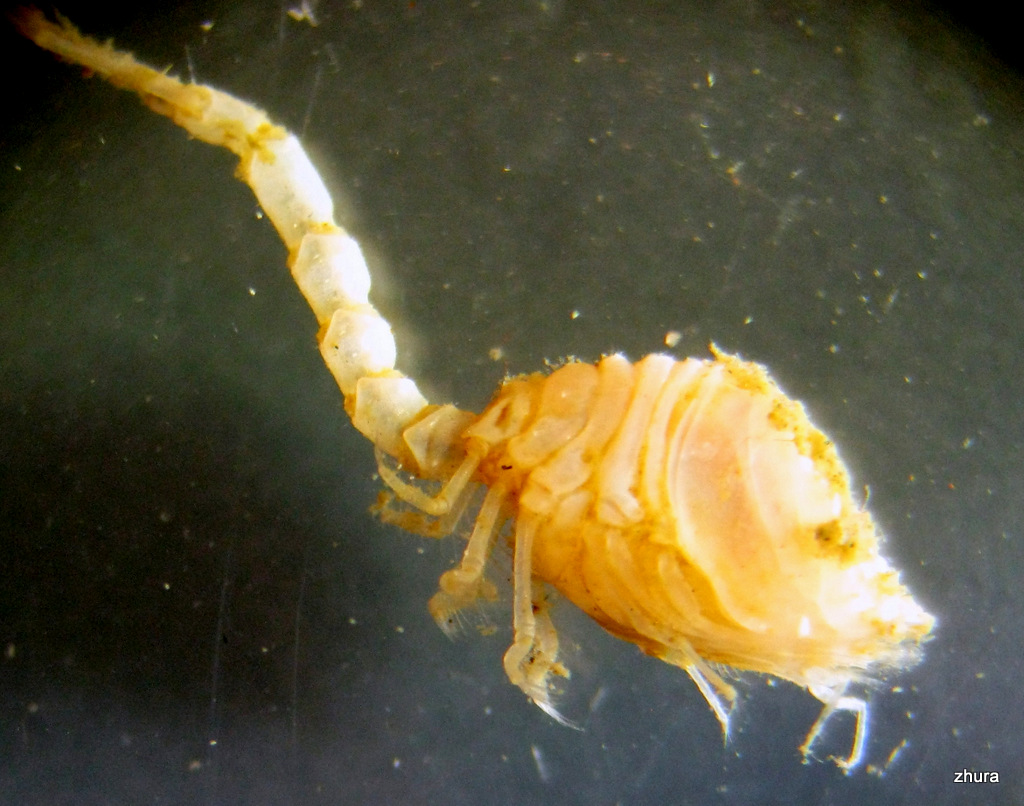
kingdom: Animalia
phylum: Arthropoda
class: Malacostraca
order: Cumacea
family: Diastylidae
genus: Diastylis
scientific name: Diastylis scorpioides
